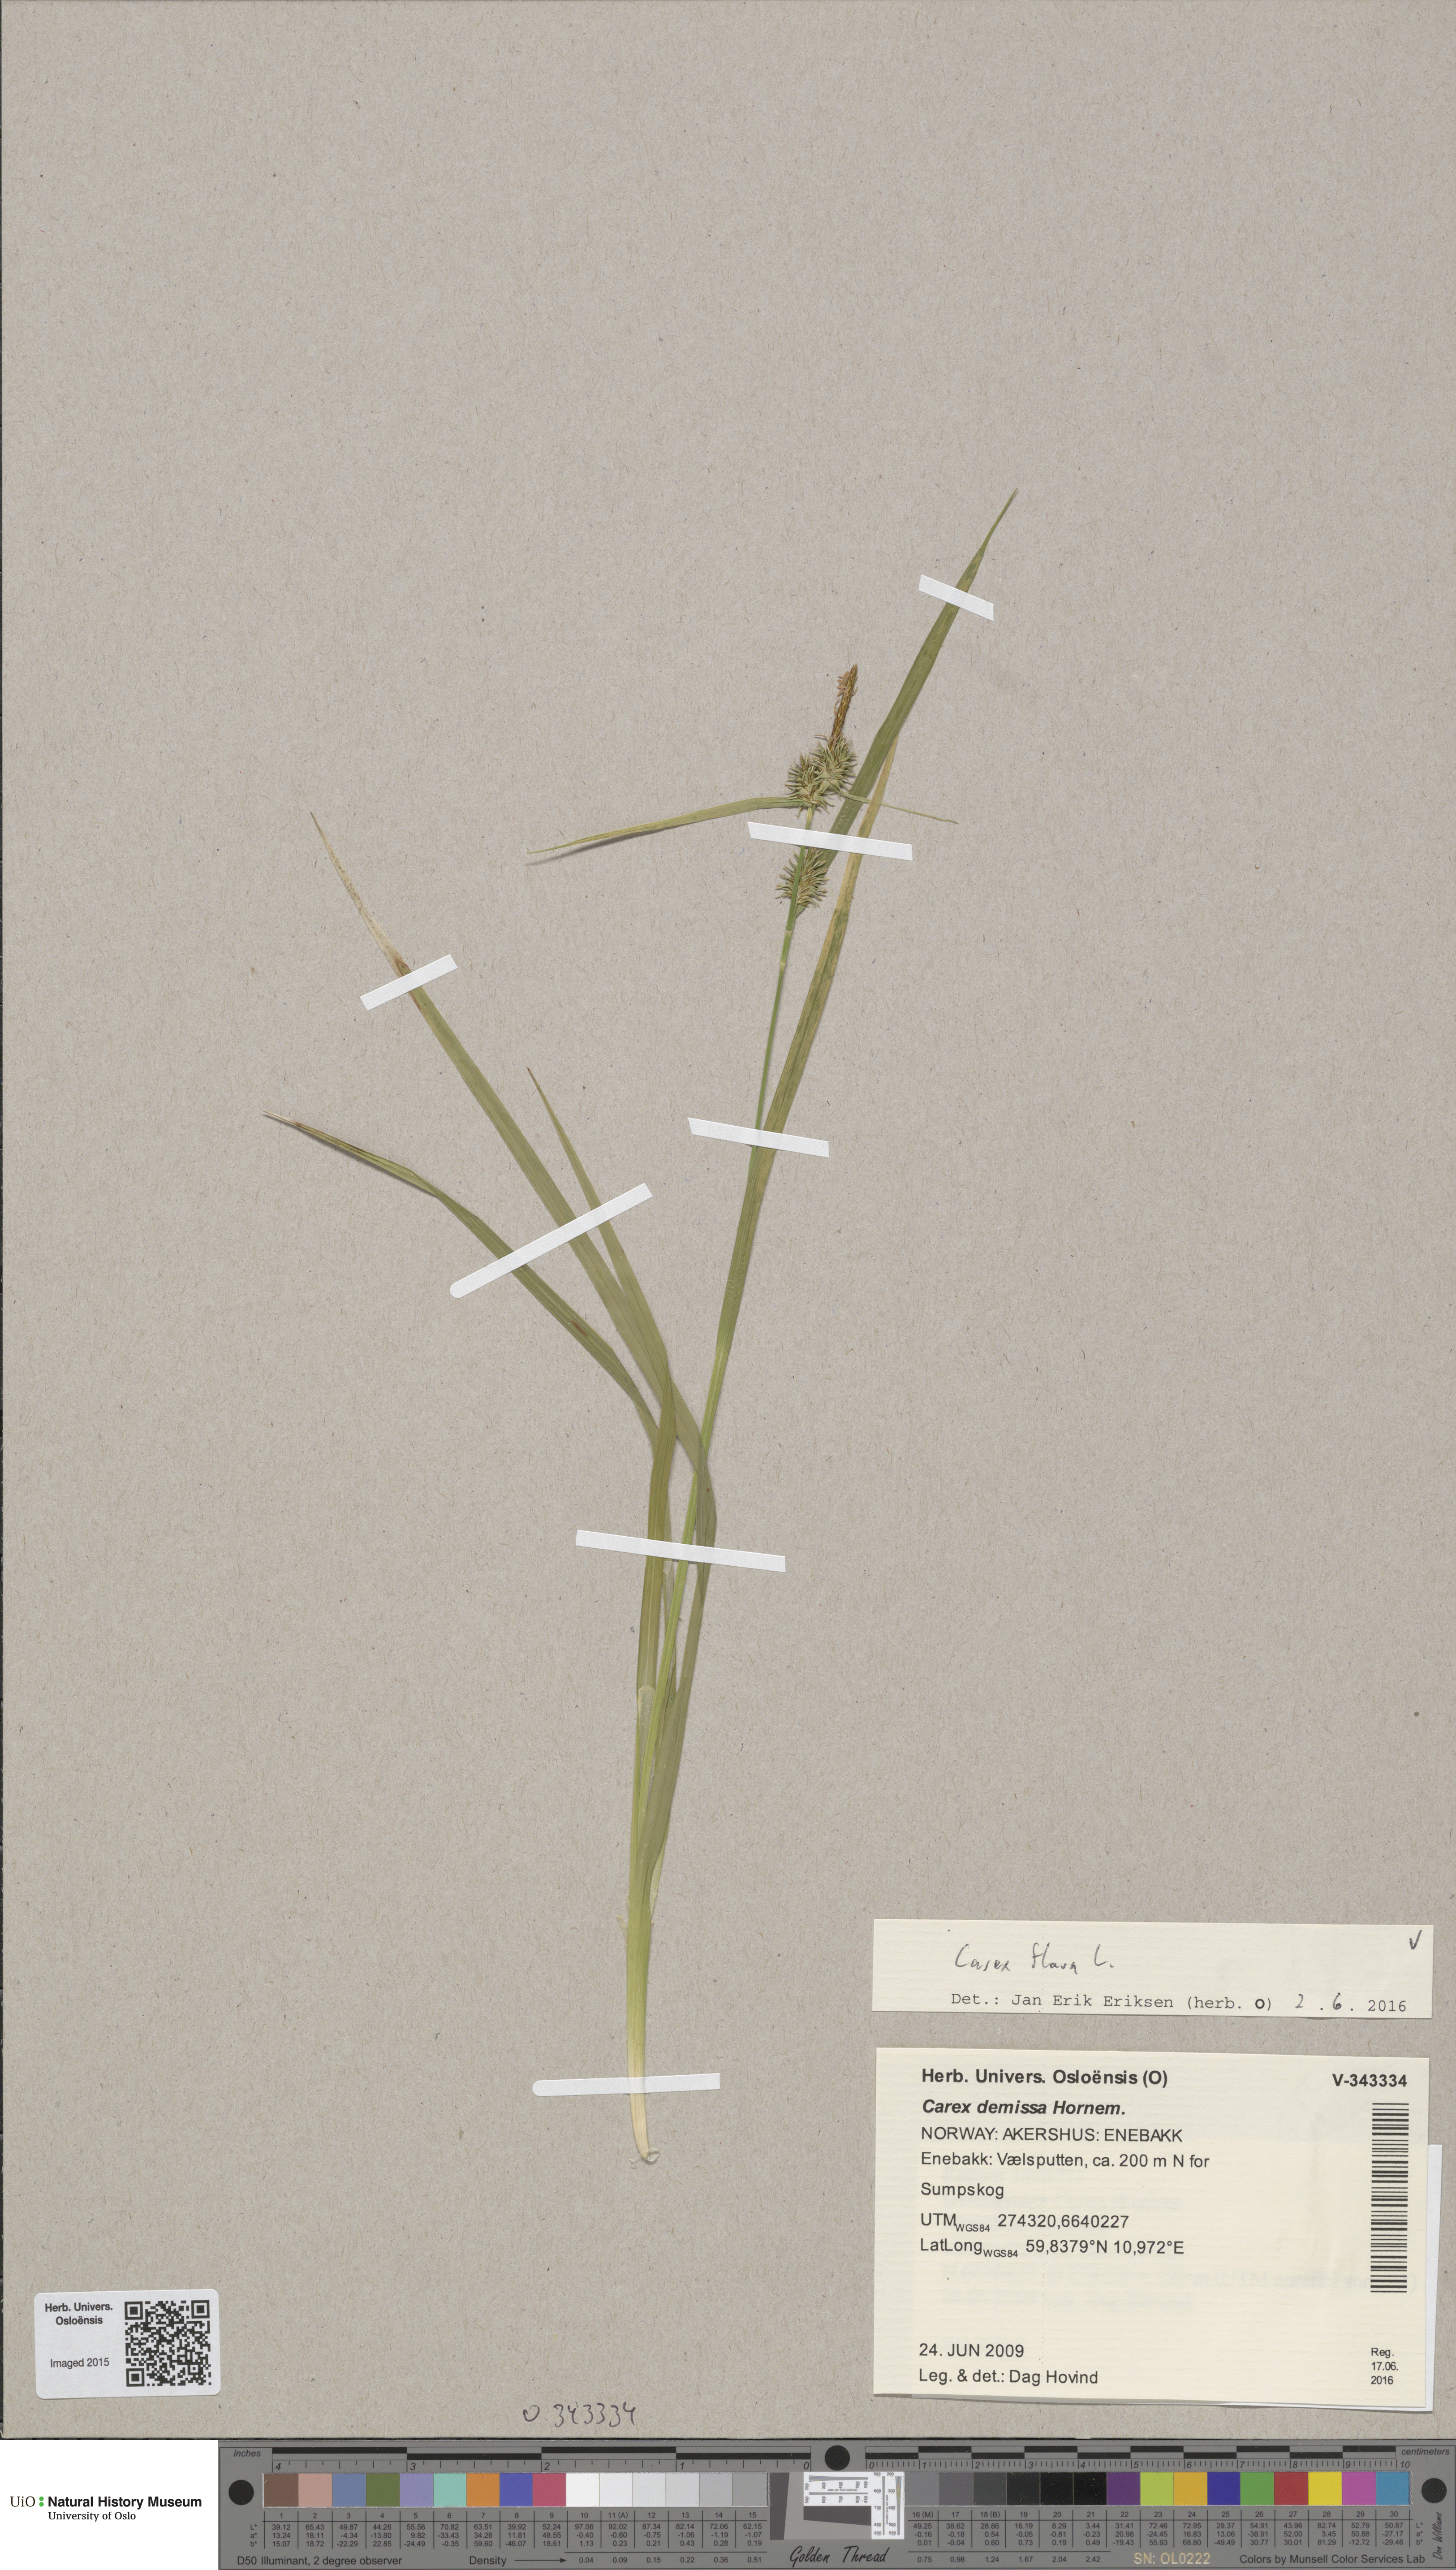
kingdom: Plantae
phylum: Tracheophyta
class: Liliopsida
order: Poales
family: Cyperaceae
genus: Carex
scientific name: Carex flava
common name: Large yellow-sedge
